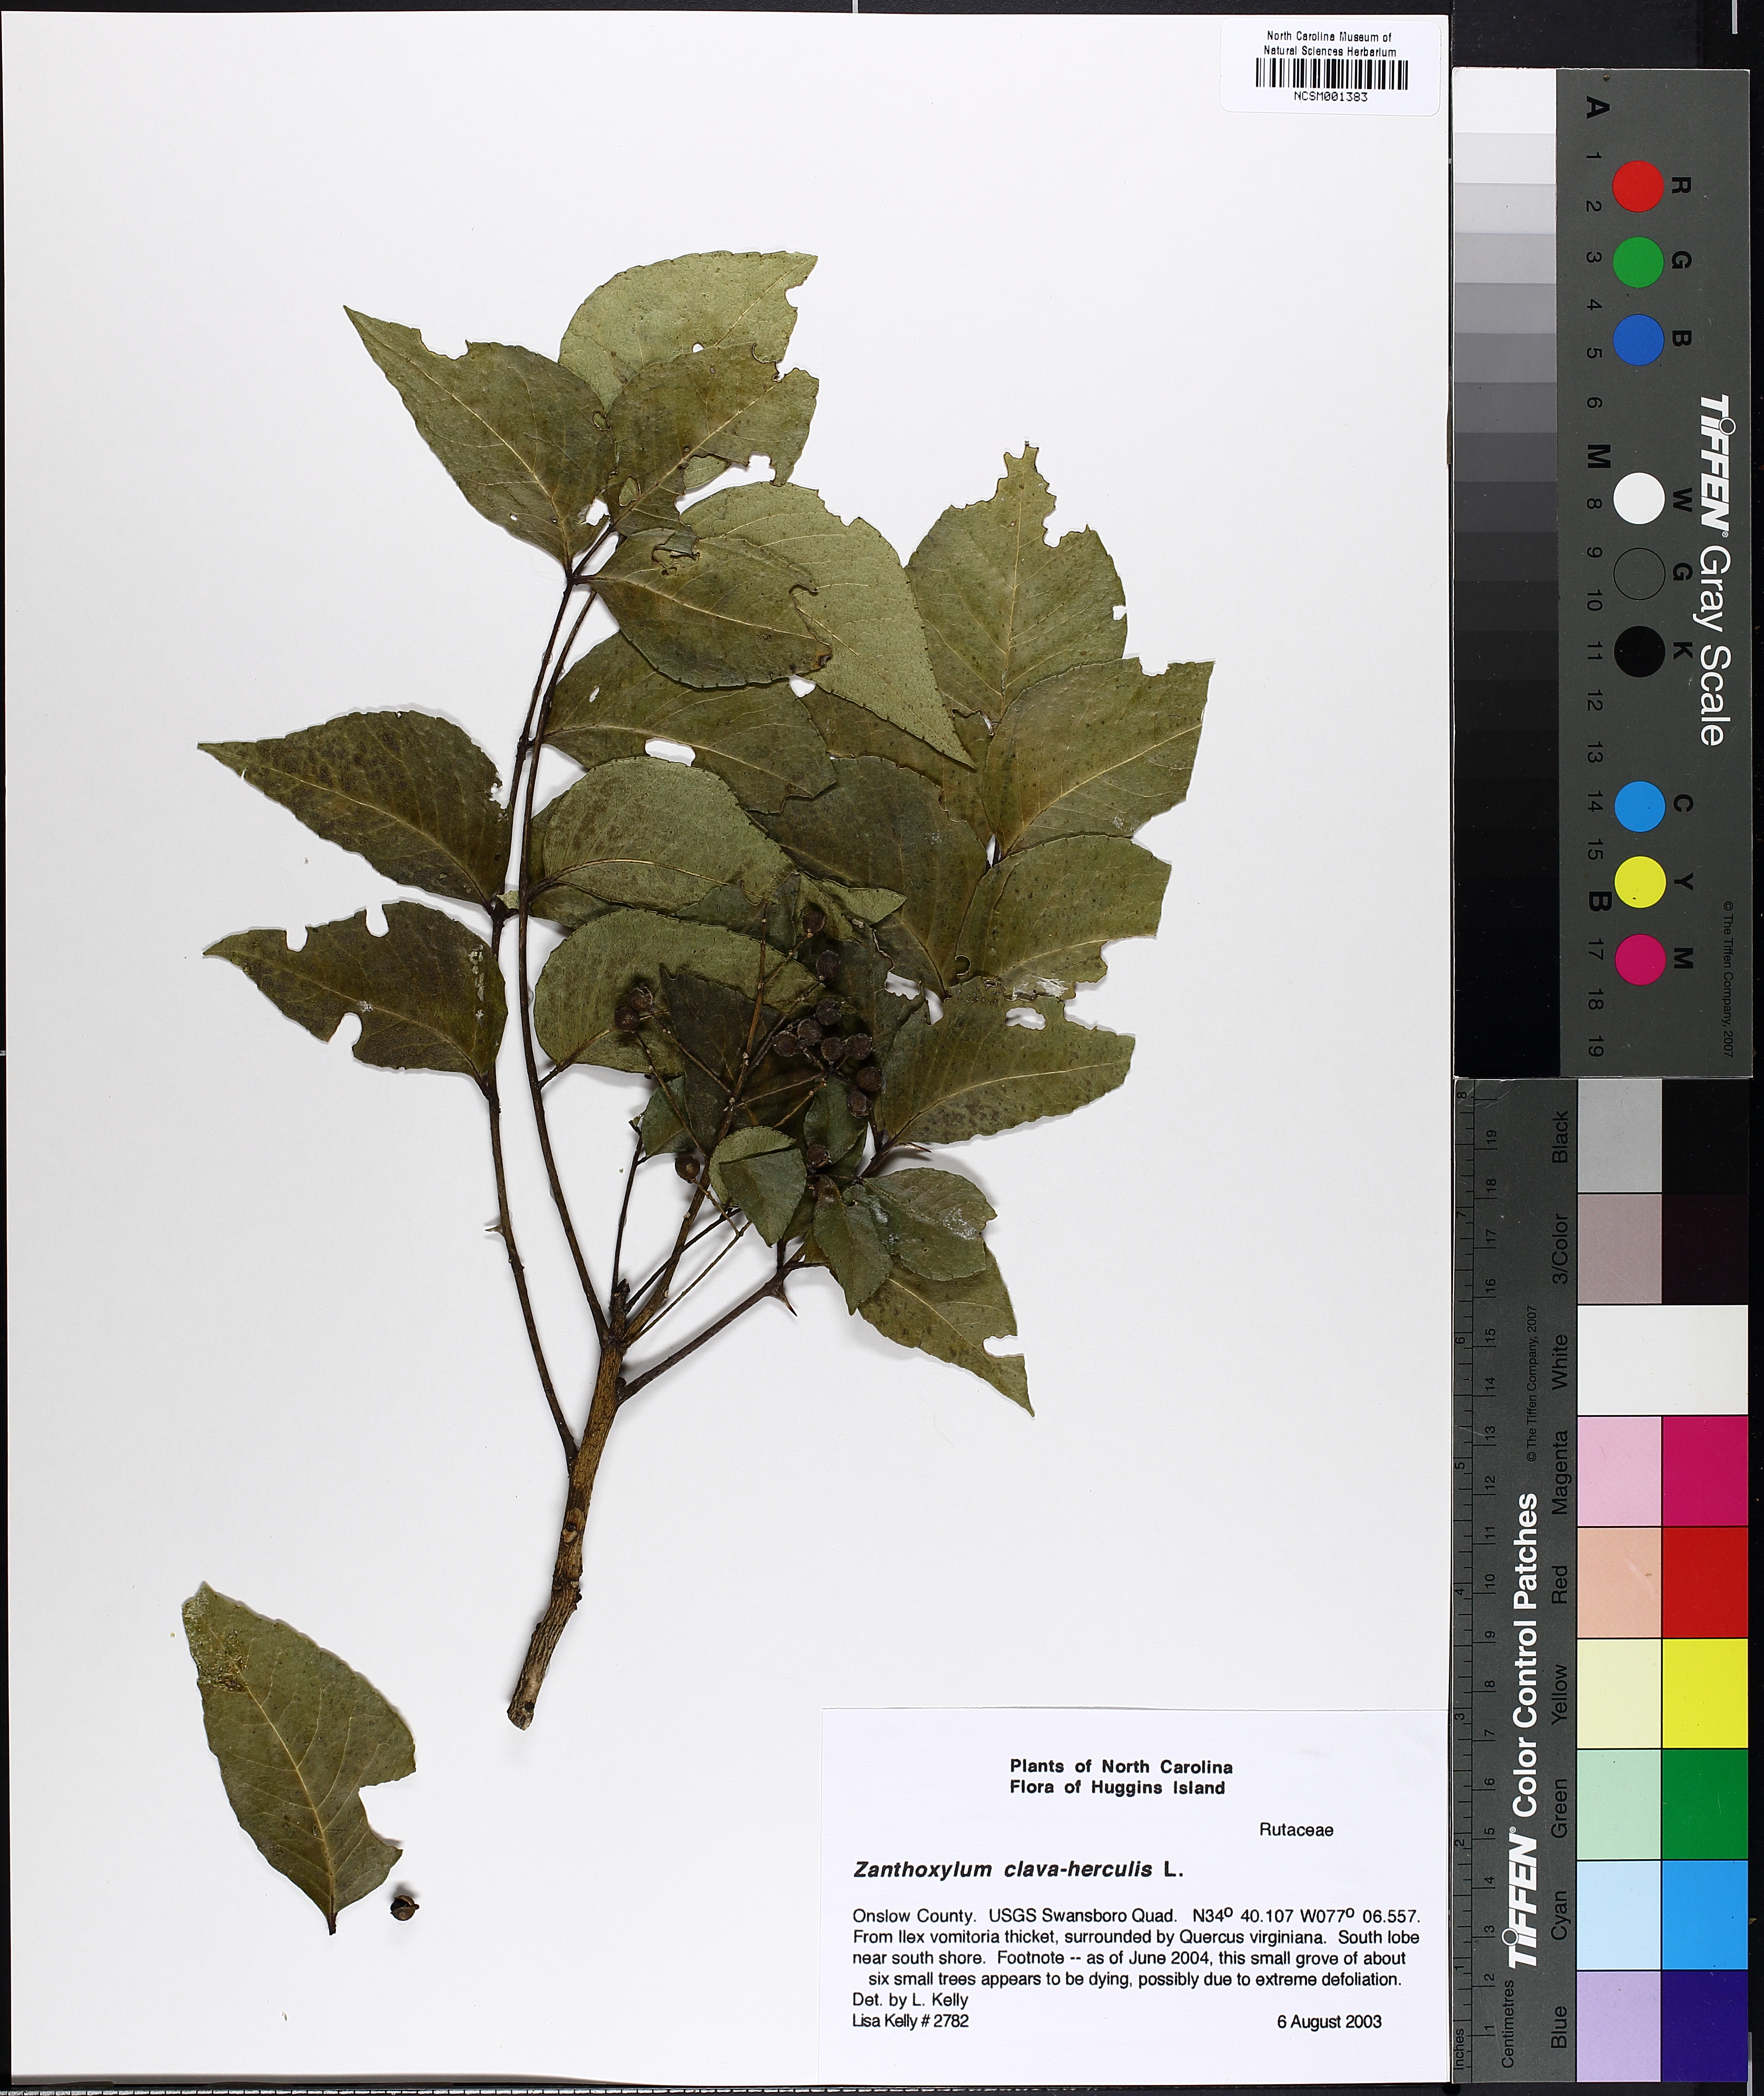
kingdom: Plantae
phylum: Tracheophyta
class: Magnoliopsida
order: Sapindales
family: Rutaceae
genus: Zanthoxylum
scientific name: Zanthoxylum avicennae
